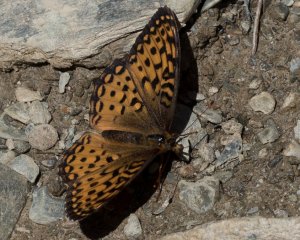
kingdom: Animalia
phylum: Arthropoda
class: Insecta
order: Lepidoptera
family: Nymphalidae
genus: Speyeria
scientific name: Speyeria atlantis
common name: Atlantis Fritillary
